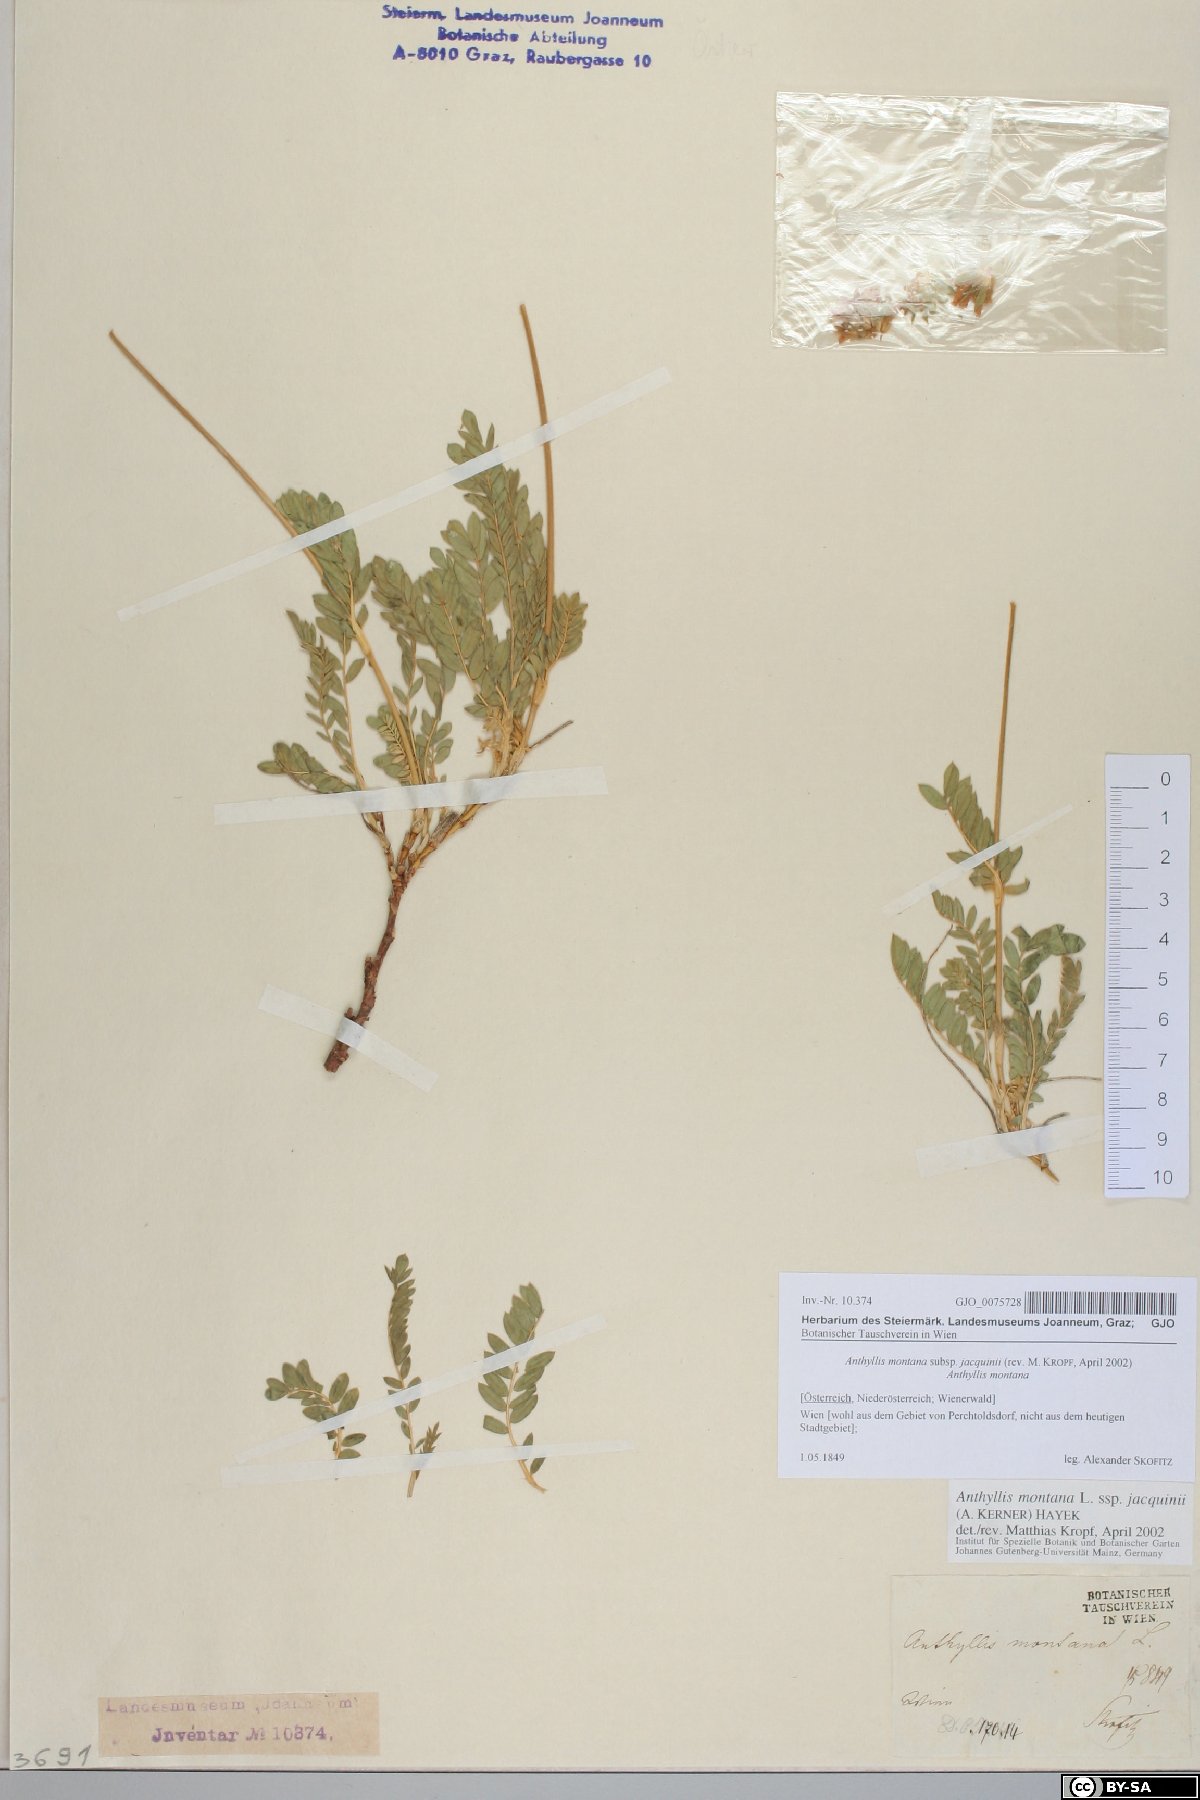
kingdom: Plantae
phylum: Tracheophyta
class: Magnoliopsida
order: Fabales
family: Fabaceae
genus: Anthyllis
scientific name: Anthyllis montana
